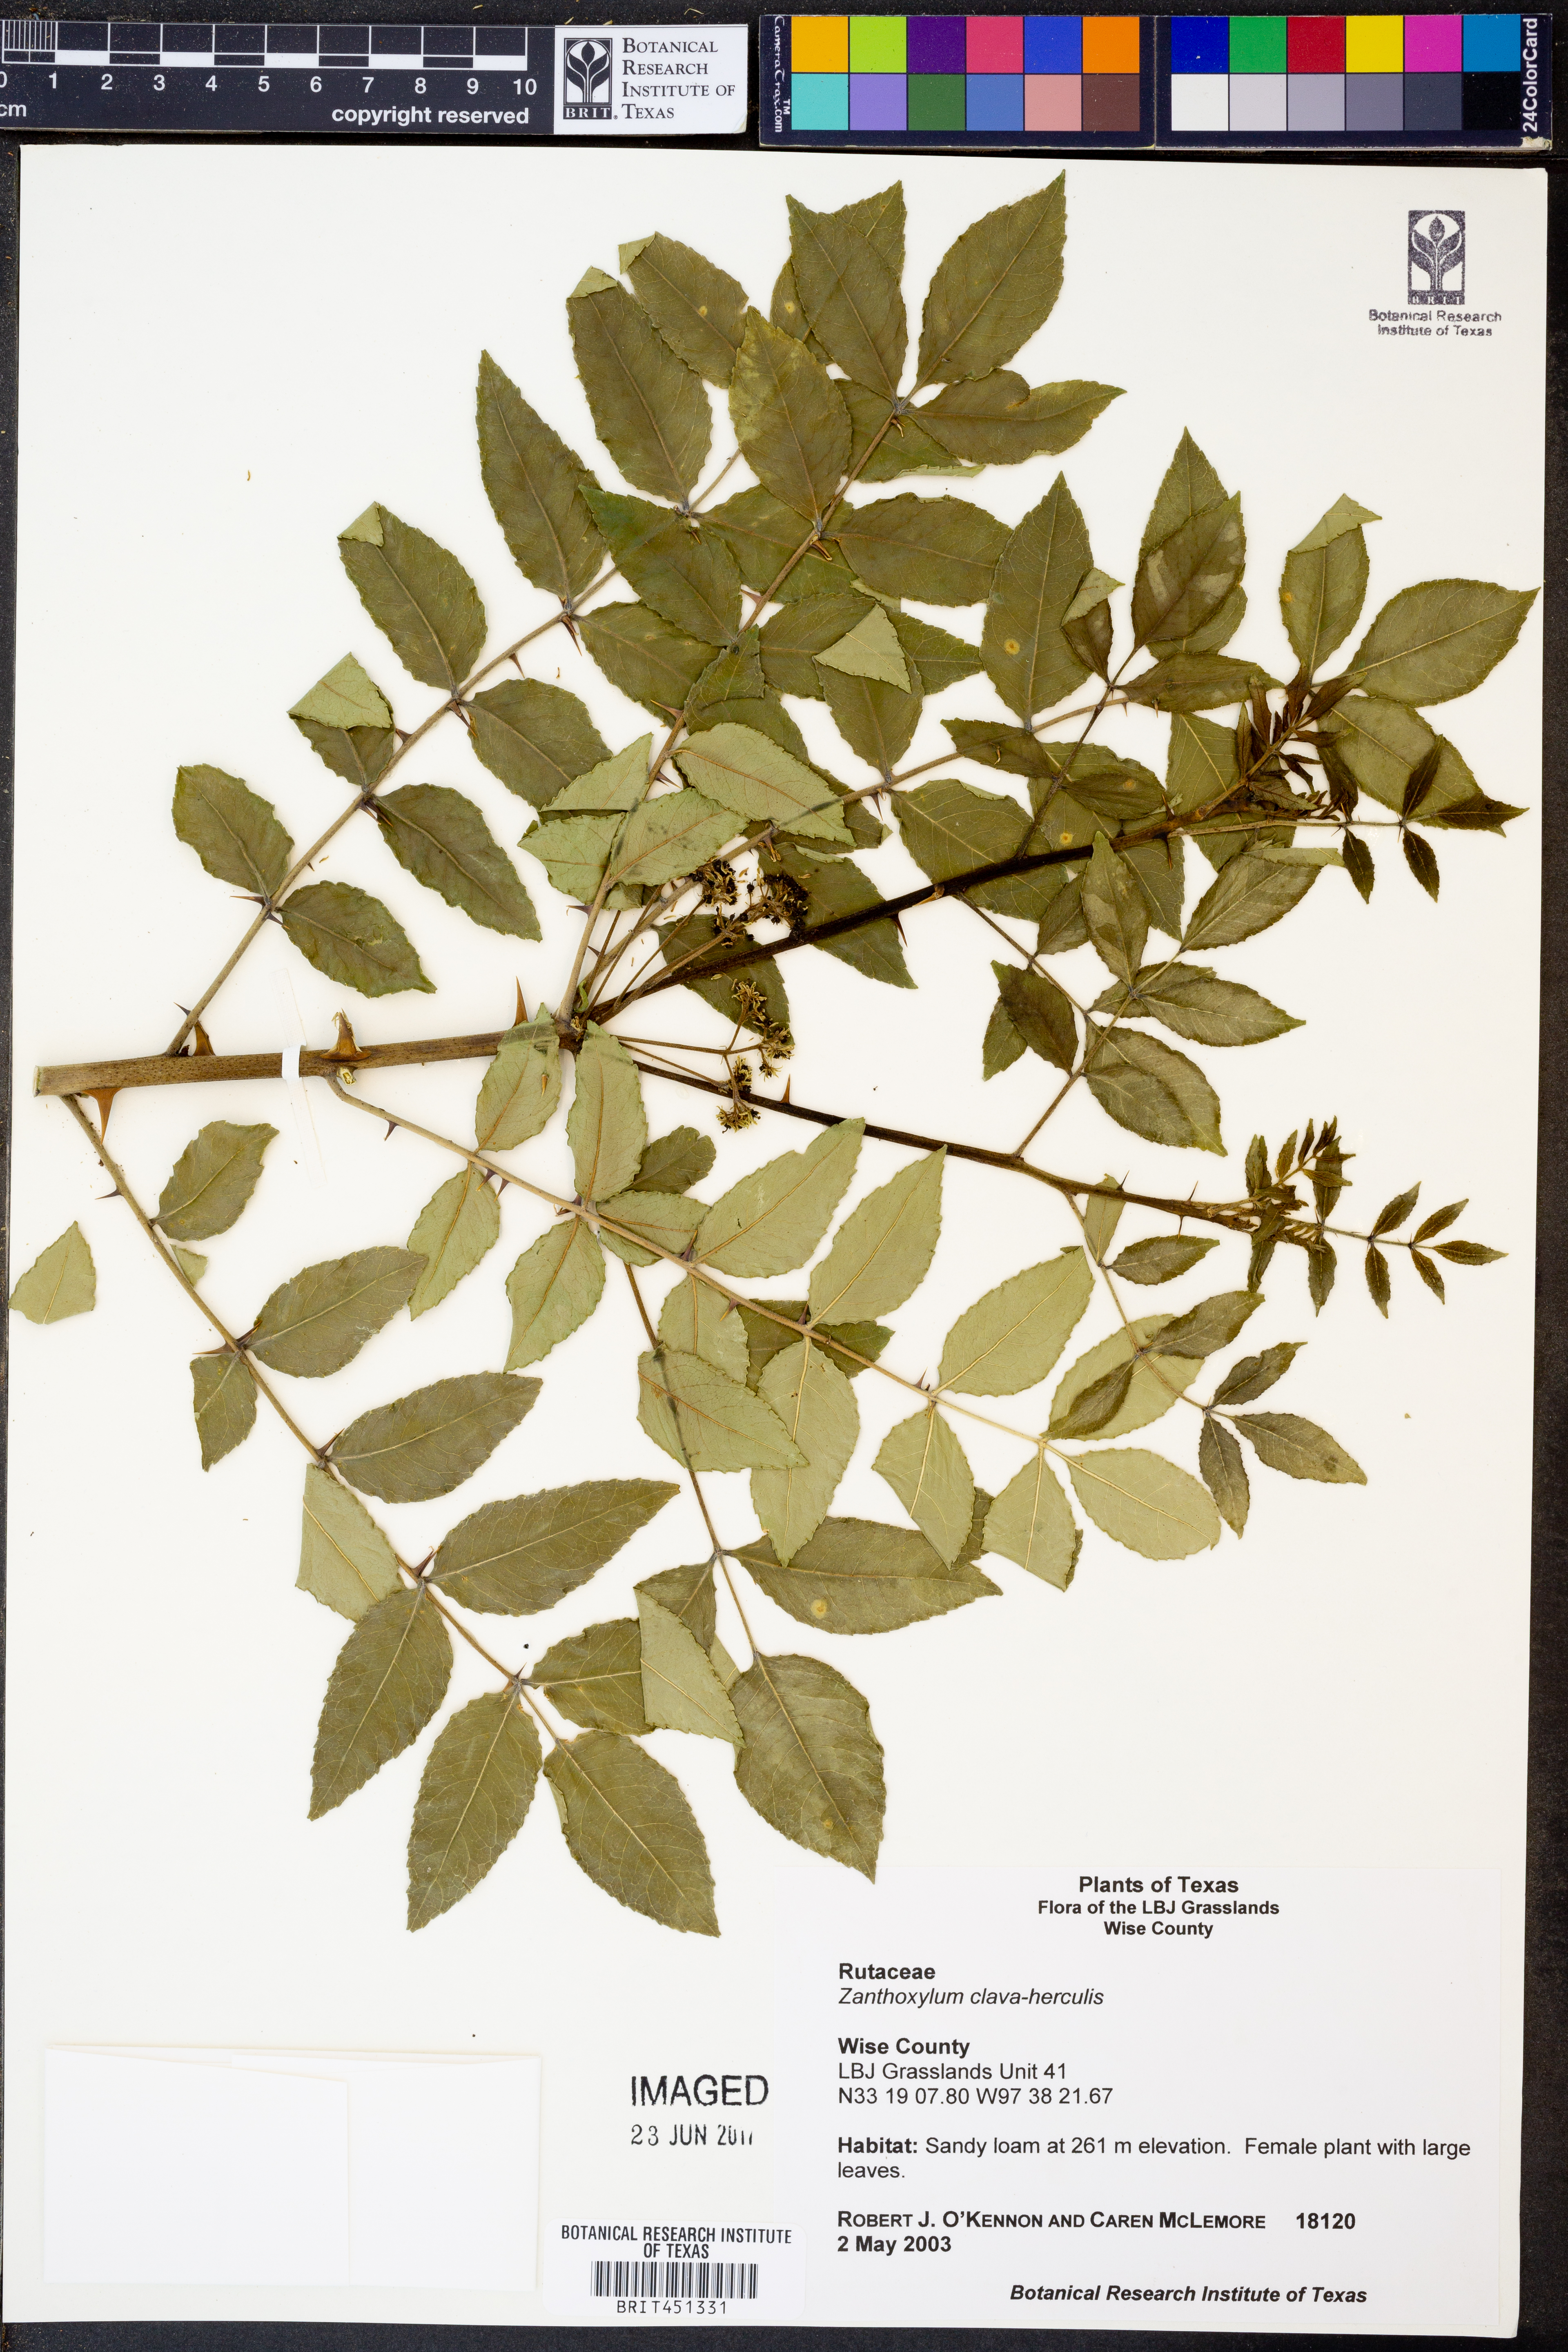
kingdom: Plantae
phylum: Tracheophyta
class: Magnoliopsida
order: Sapindales
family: Rutaceae
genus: Zanthoxylum
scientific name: Zanthoxylum avicennae
